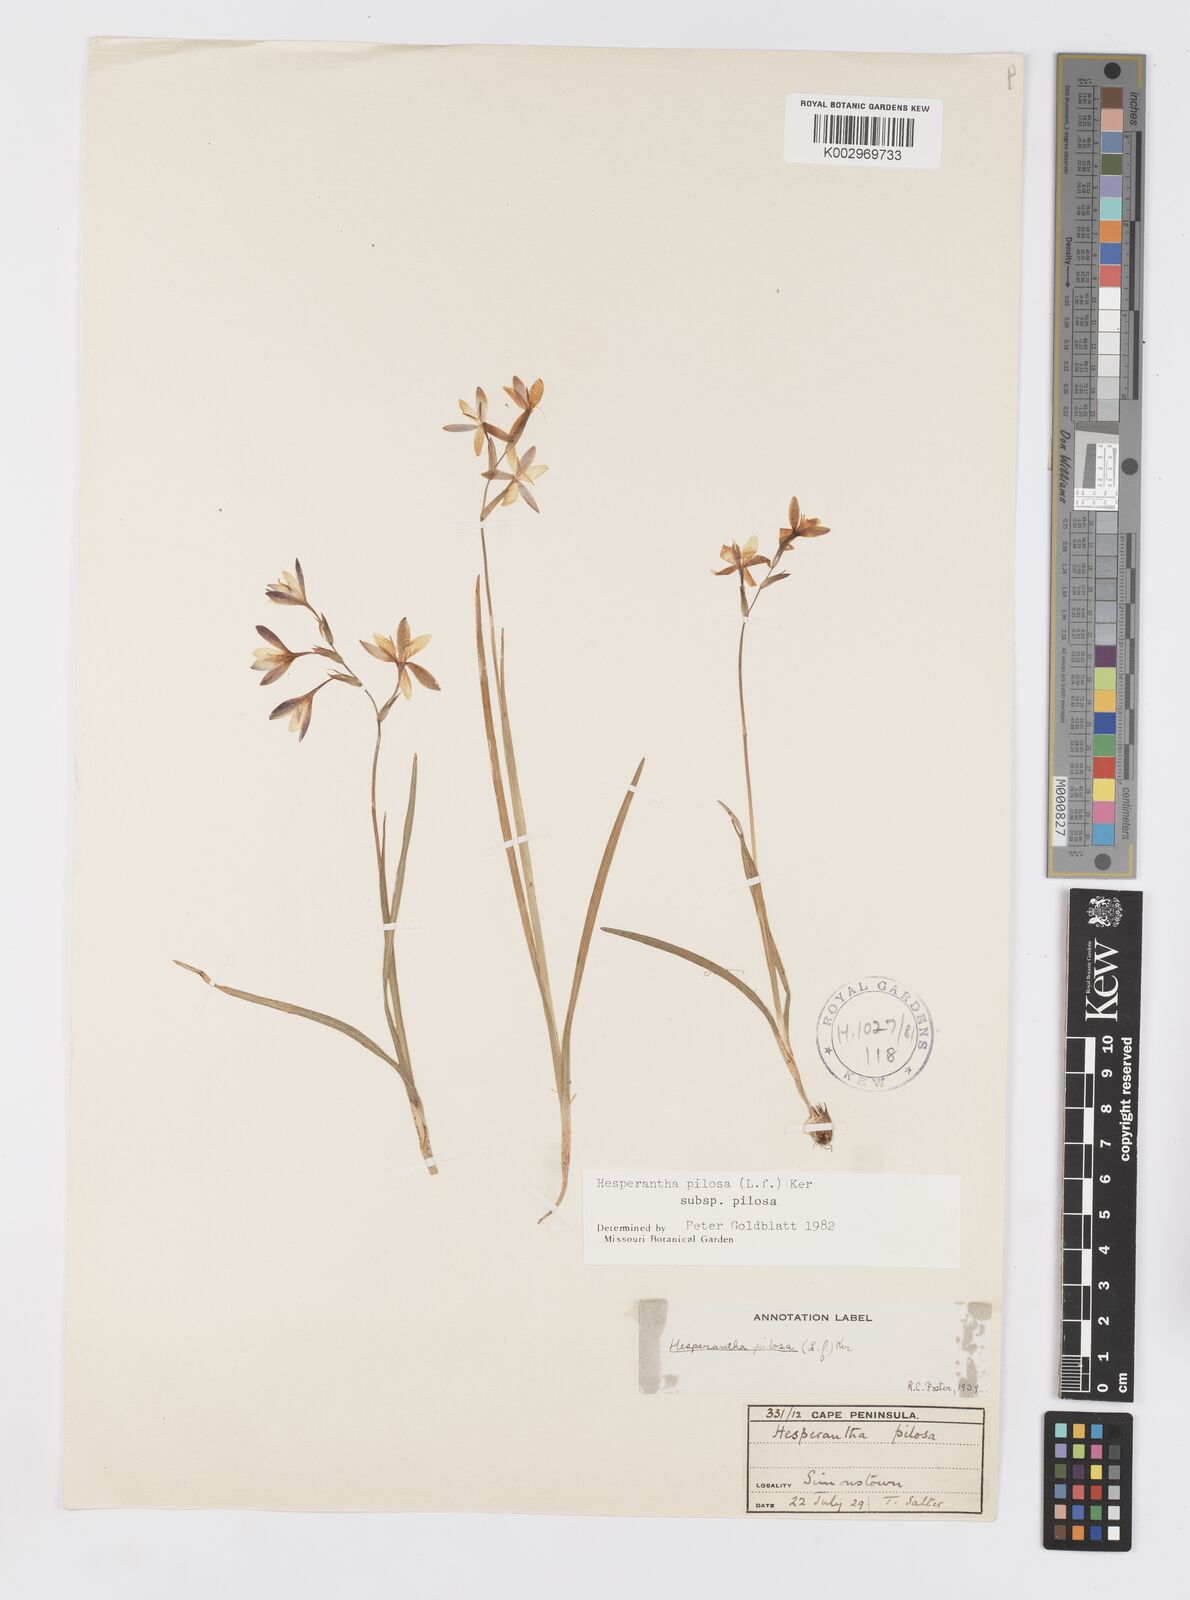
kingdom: Plantae
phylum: Tracheophyta
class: Liliopsida
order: Asparagales
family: Iridaceae
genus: Hesperantha
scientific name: Hesperantha pilosa
